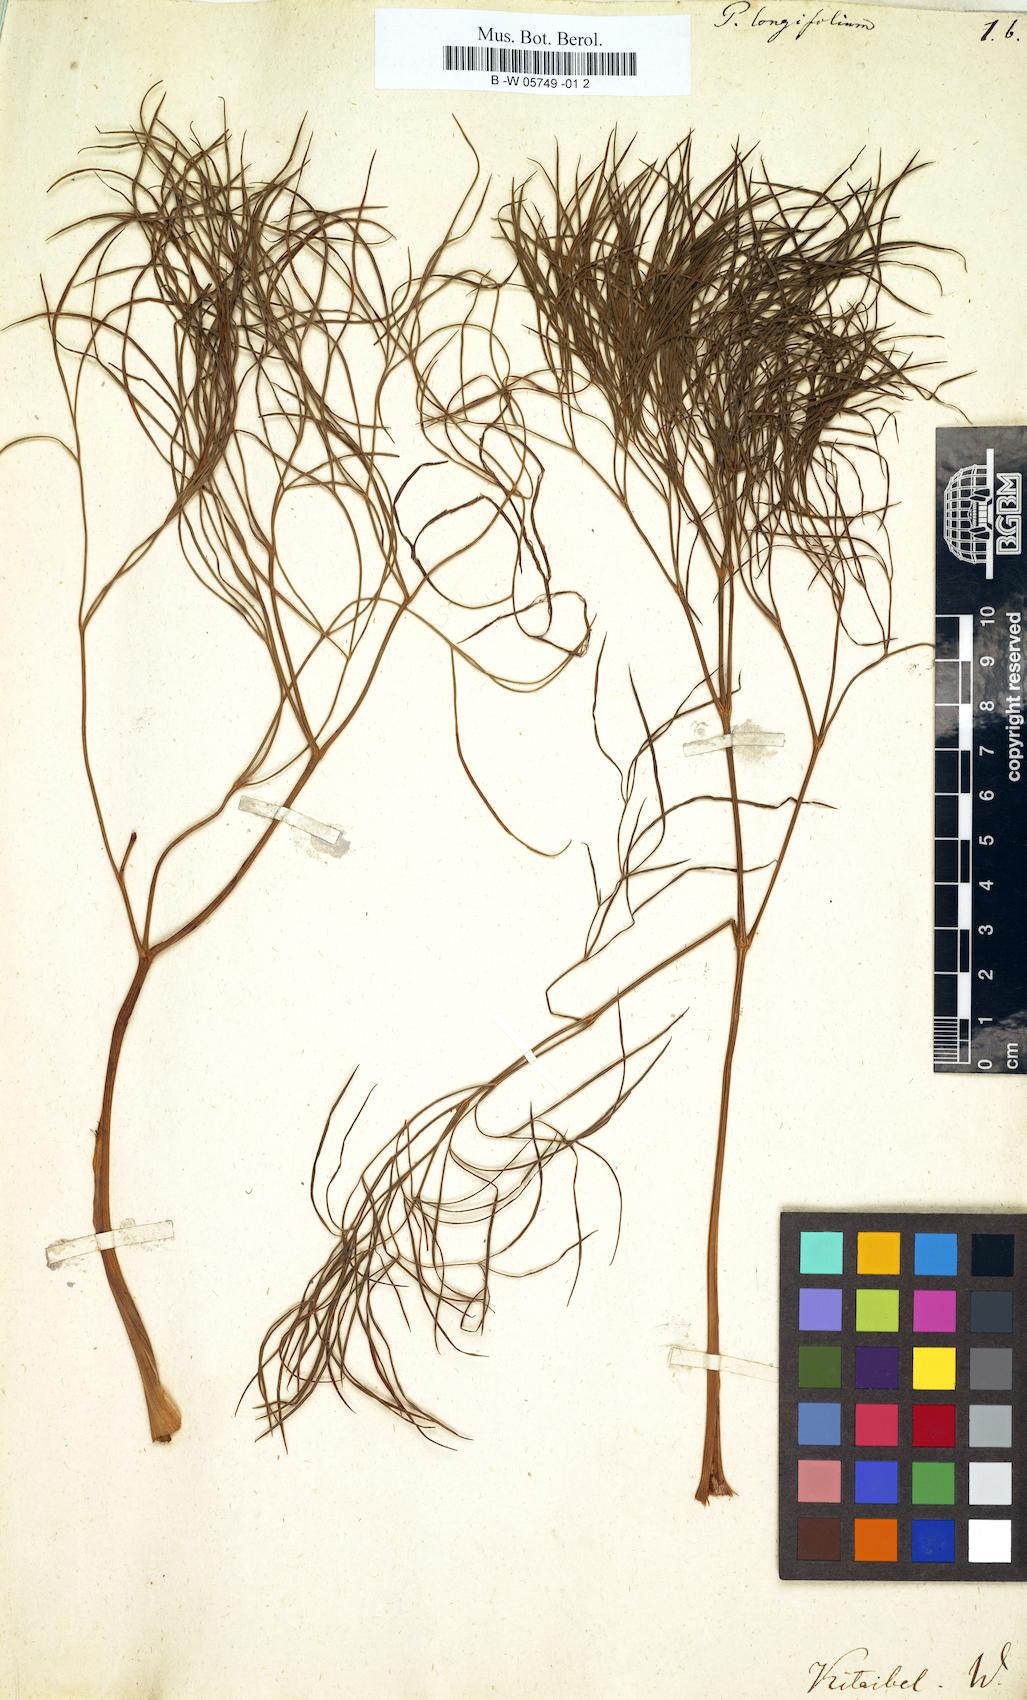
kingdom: Plantae
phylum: Tracheophyta
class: Magnoliopsida
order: Apiales
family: Apiaceae
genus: Peucedanum
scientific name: Peucedanum longifolium
